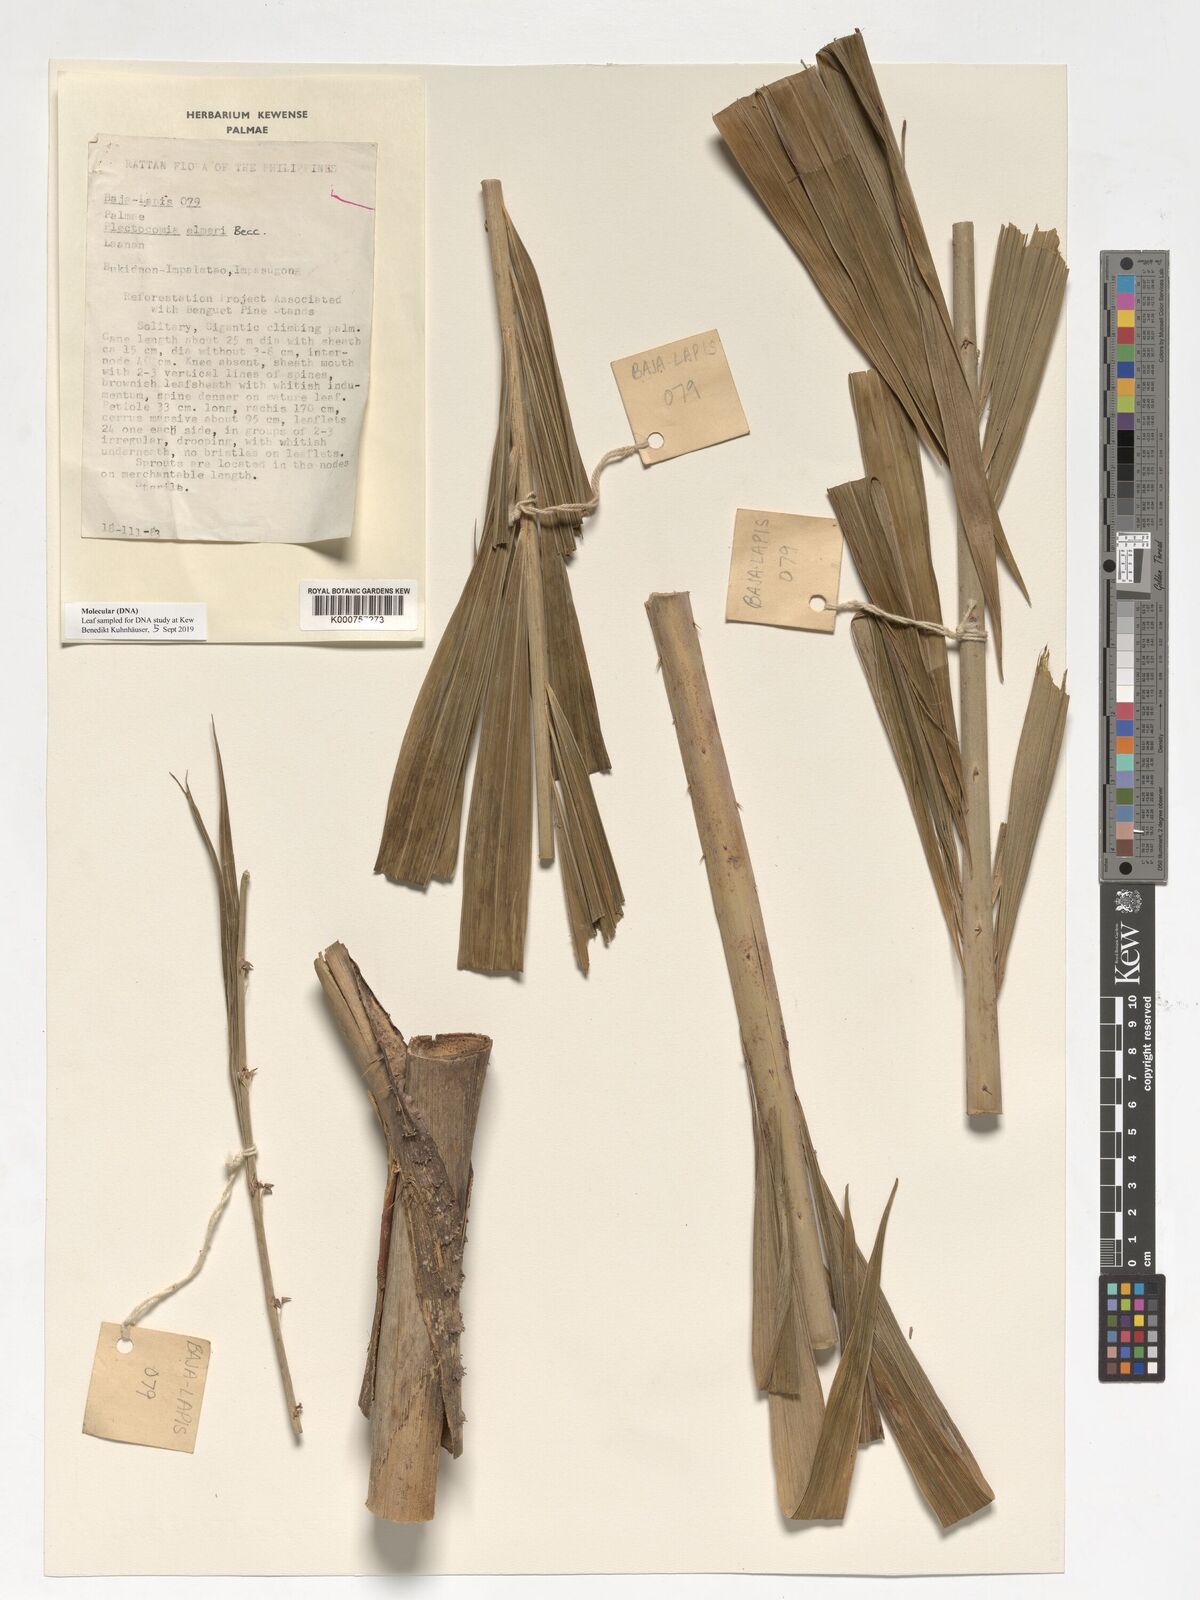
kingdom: Plantae
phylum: Tracheophyta
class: Liliopsida
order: Arecales
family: Arecaceae
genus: Plectocomia
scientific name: Plectocomia elmeri
